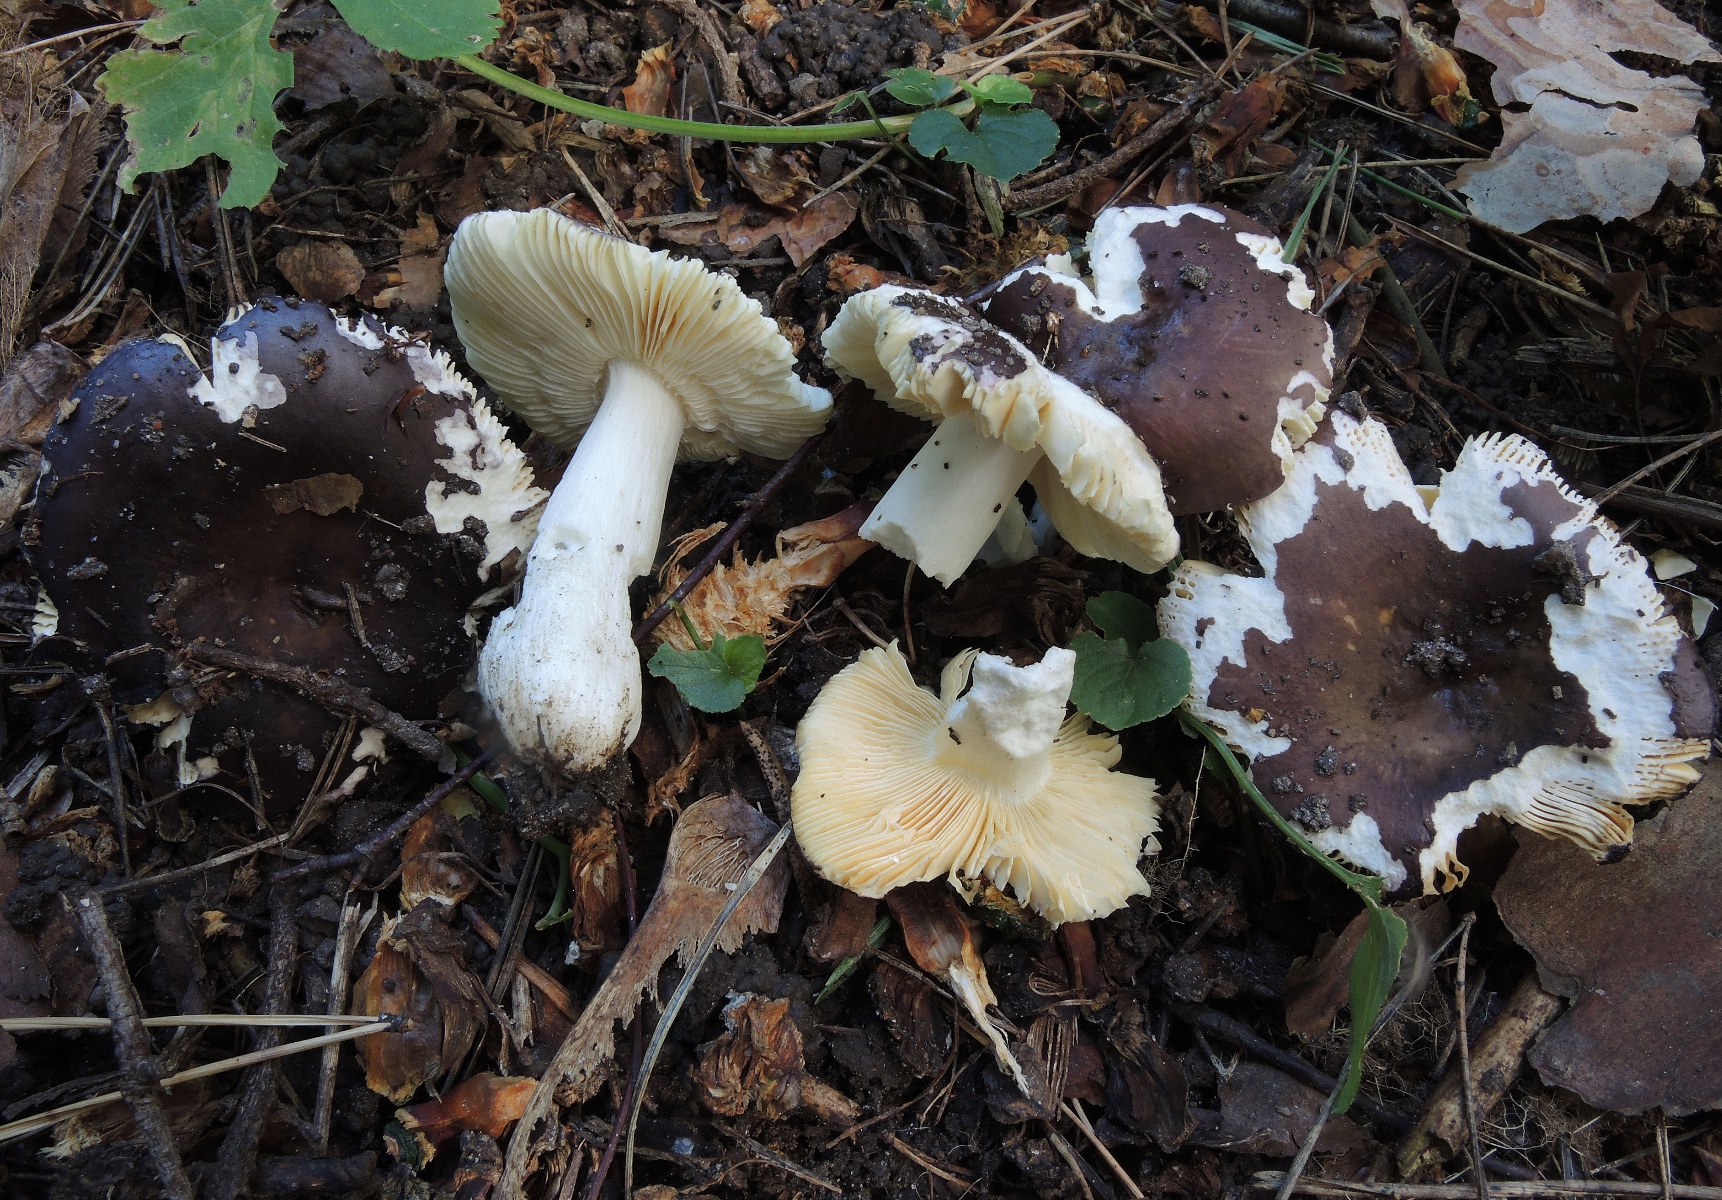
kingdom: Fungi
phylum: Basidiomycota
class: Agaricomycetes
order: Russulales
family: Russulaceae
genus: Russula
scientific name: Russula firmula
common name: nåleskarp skørhat
